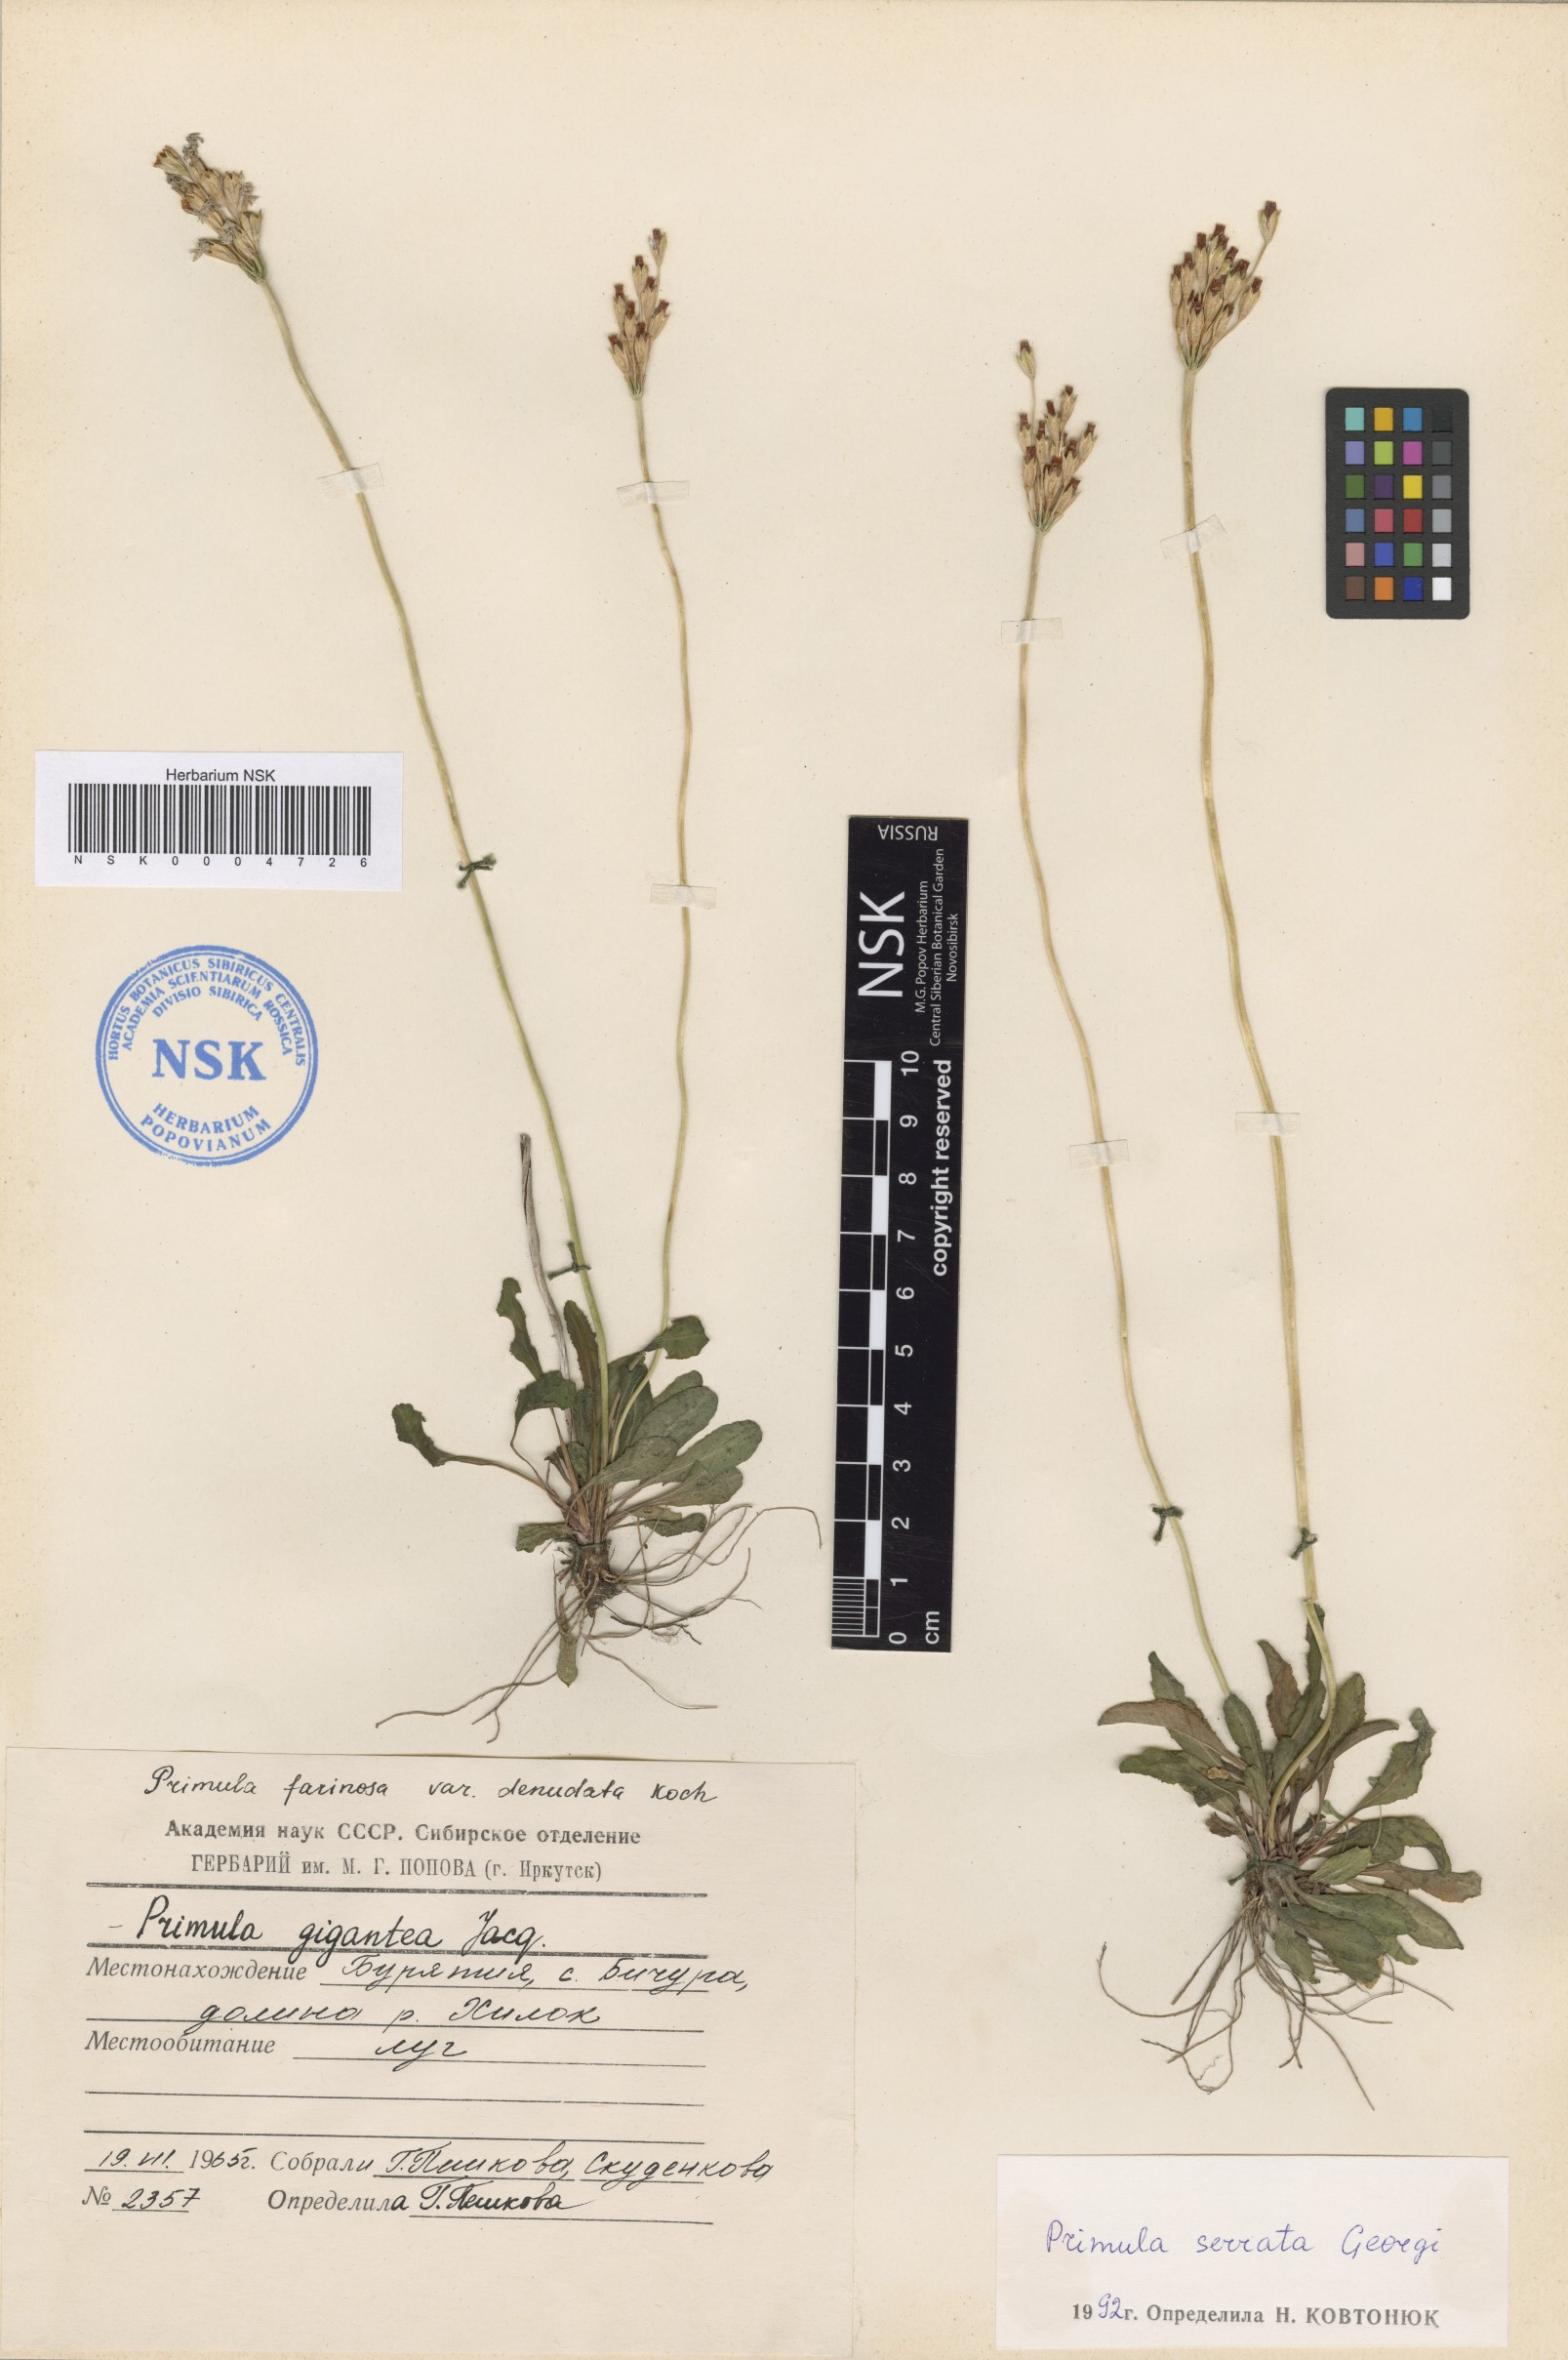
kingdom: Plantae
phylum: Tracheophyta
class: Magnoliopsida
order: Ericales
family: Primulaceae
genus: Primula
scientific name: Primula serrata
